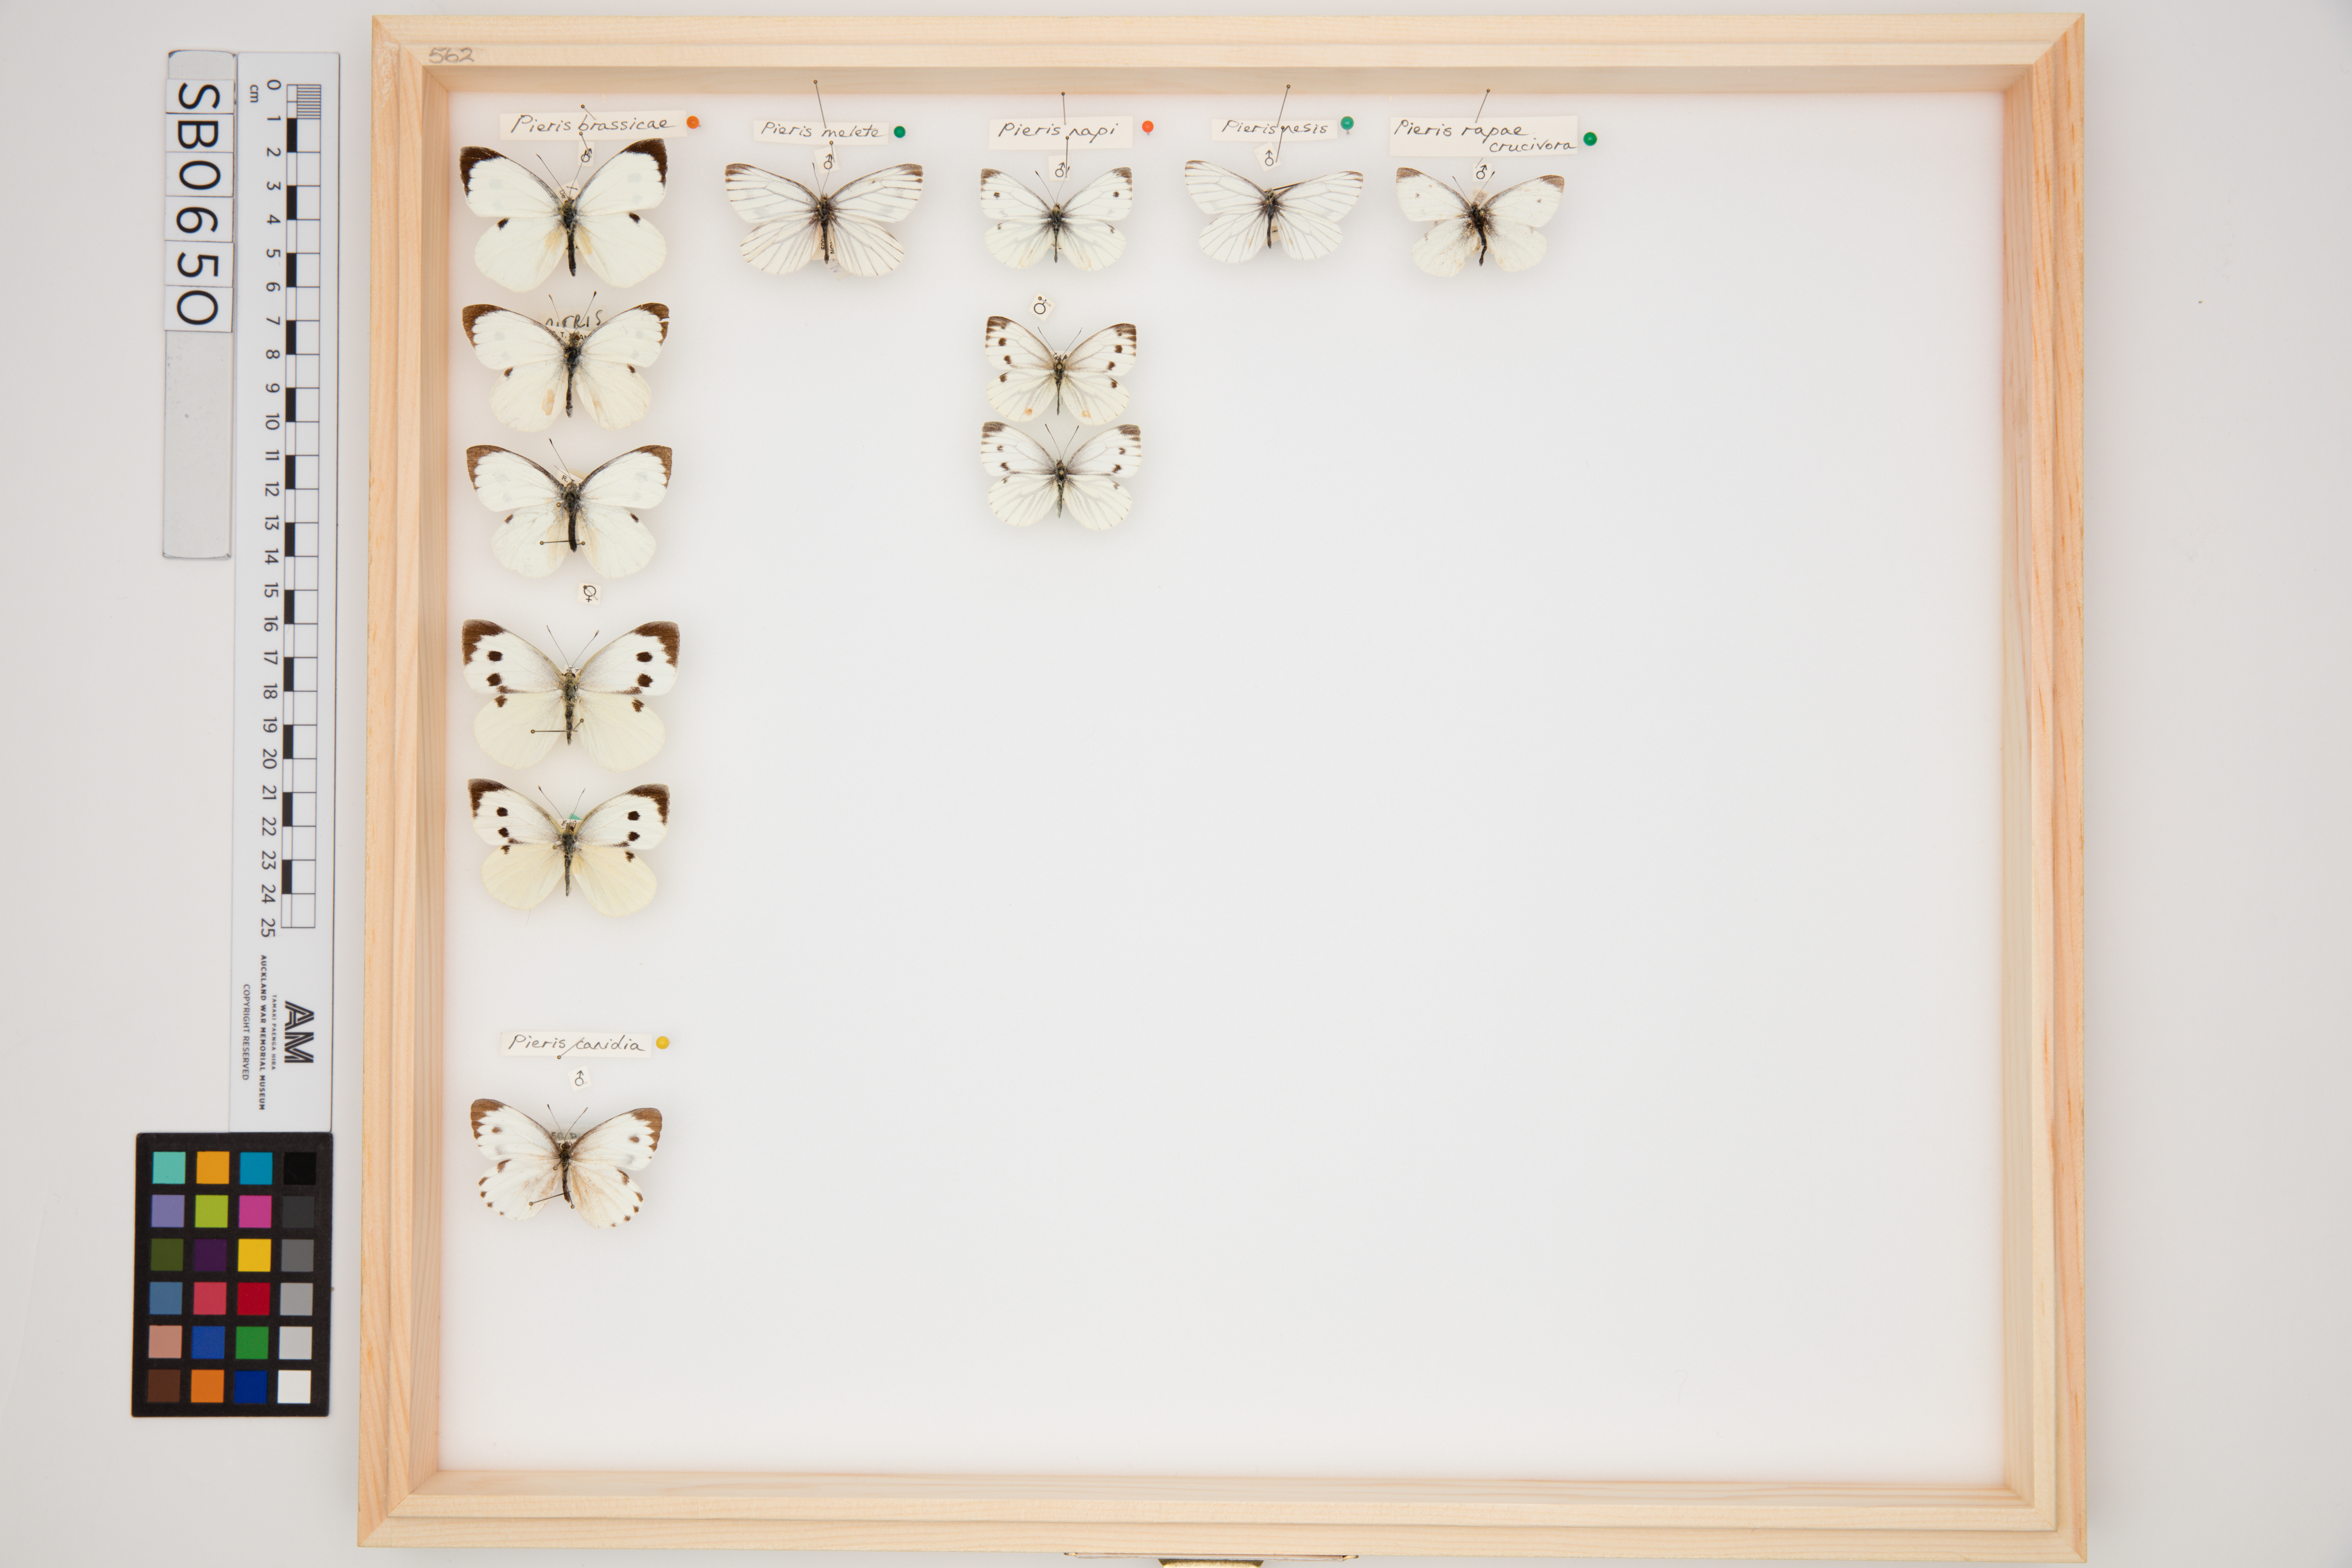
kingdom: Animalia
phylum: Arthropoda
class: Insecta
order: Lepidoptera
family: Pieridae
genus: Pieris
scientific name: Pieris napi
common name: Green-veined white
